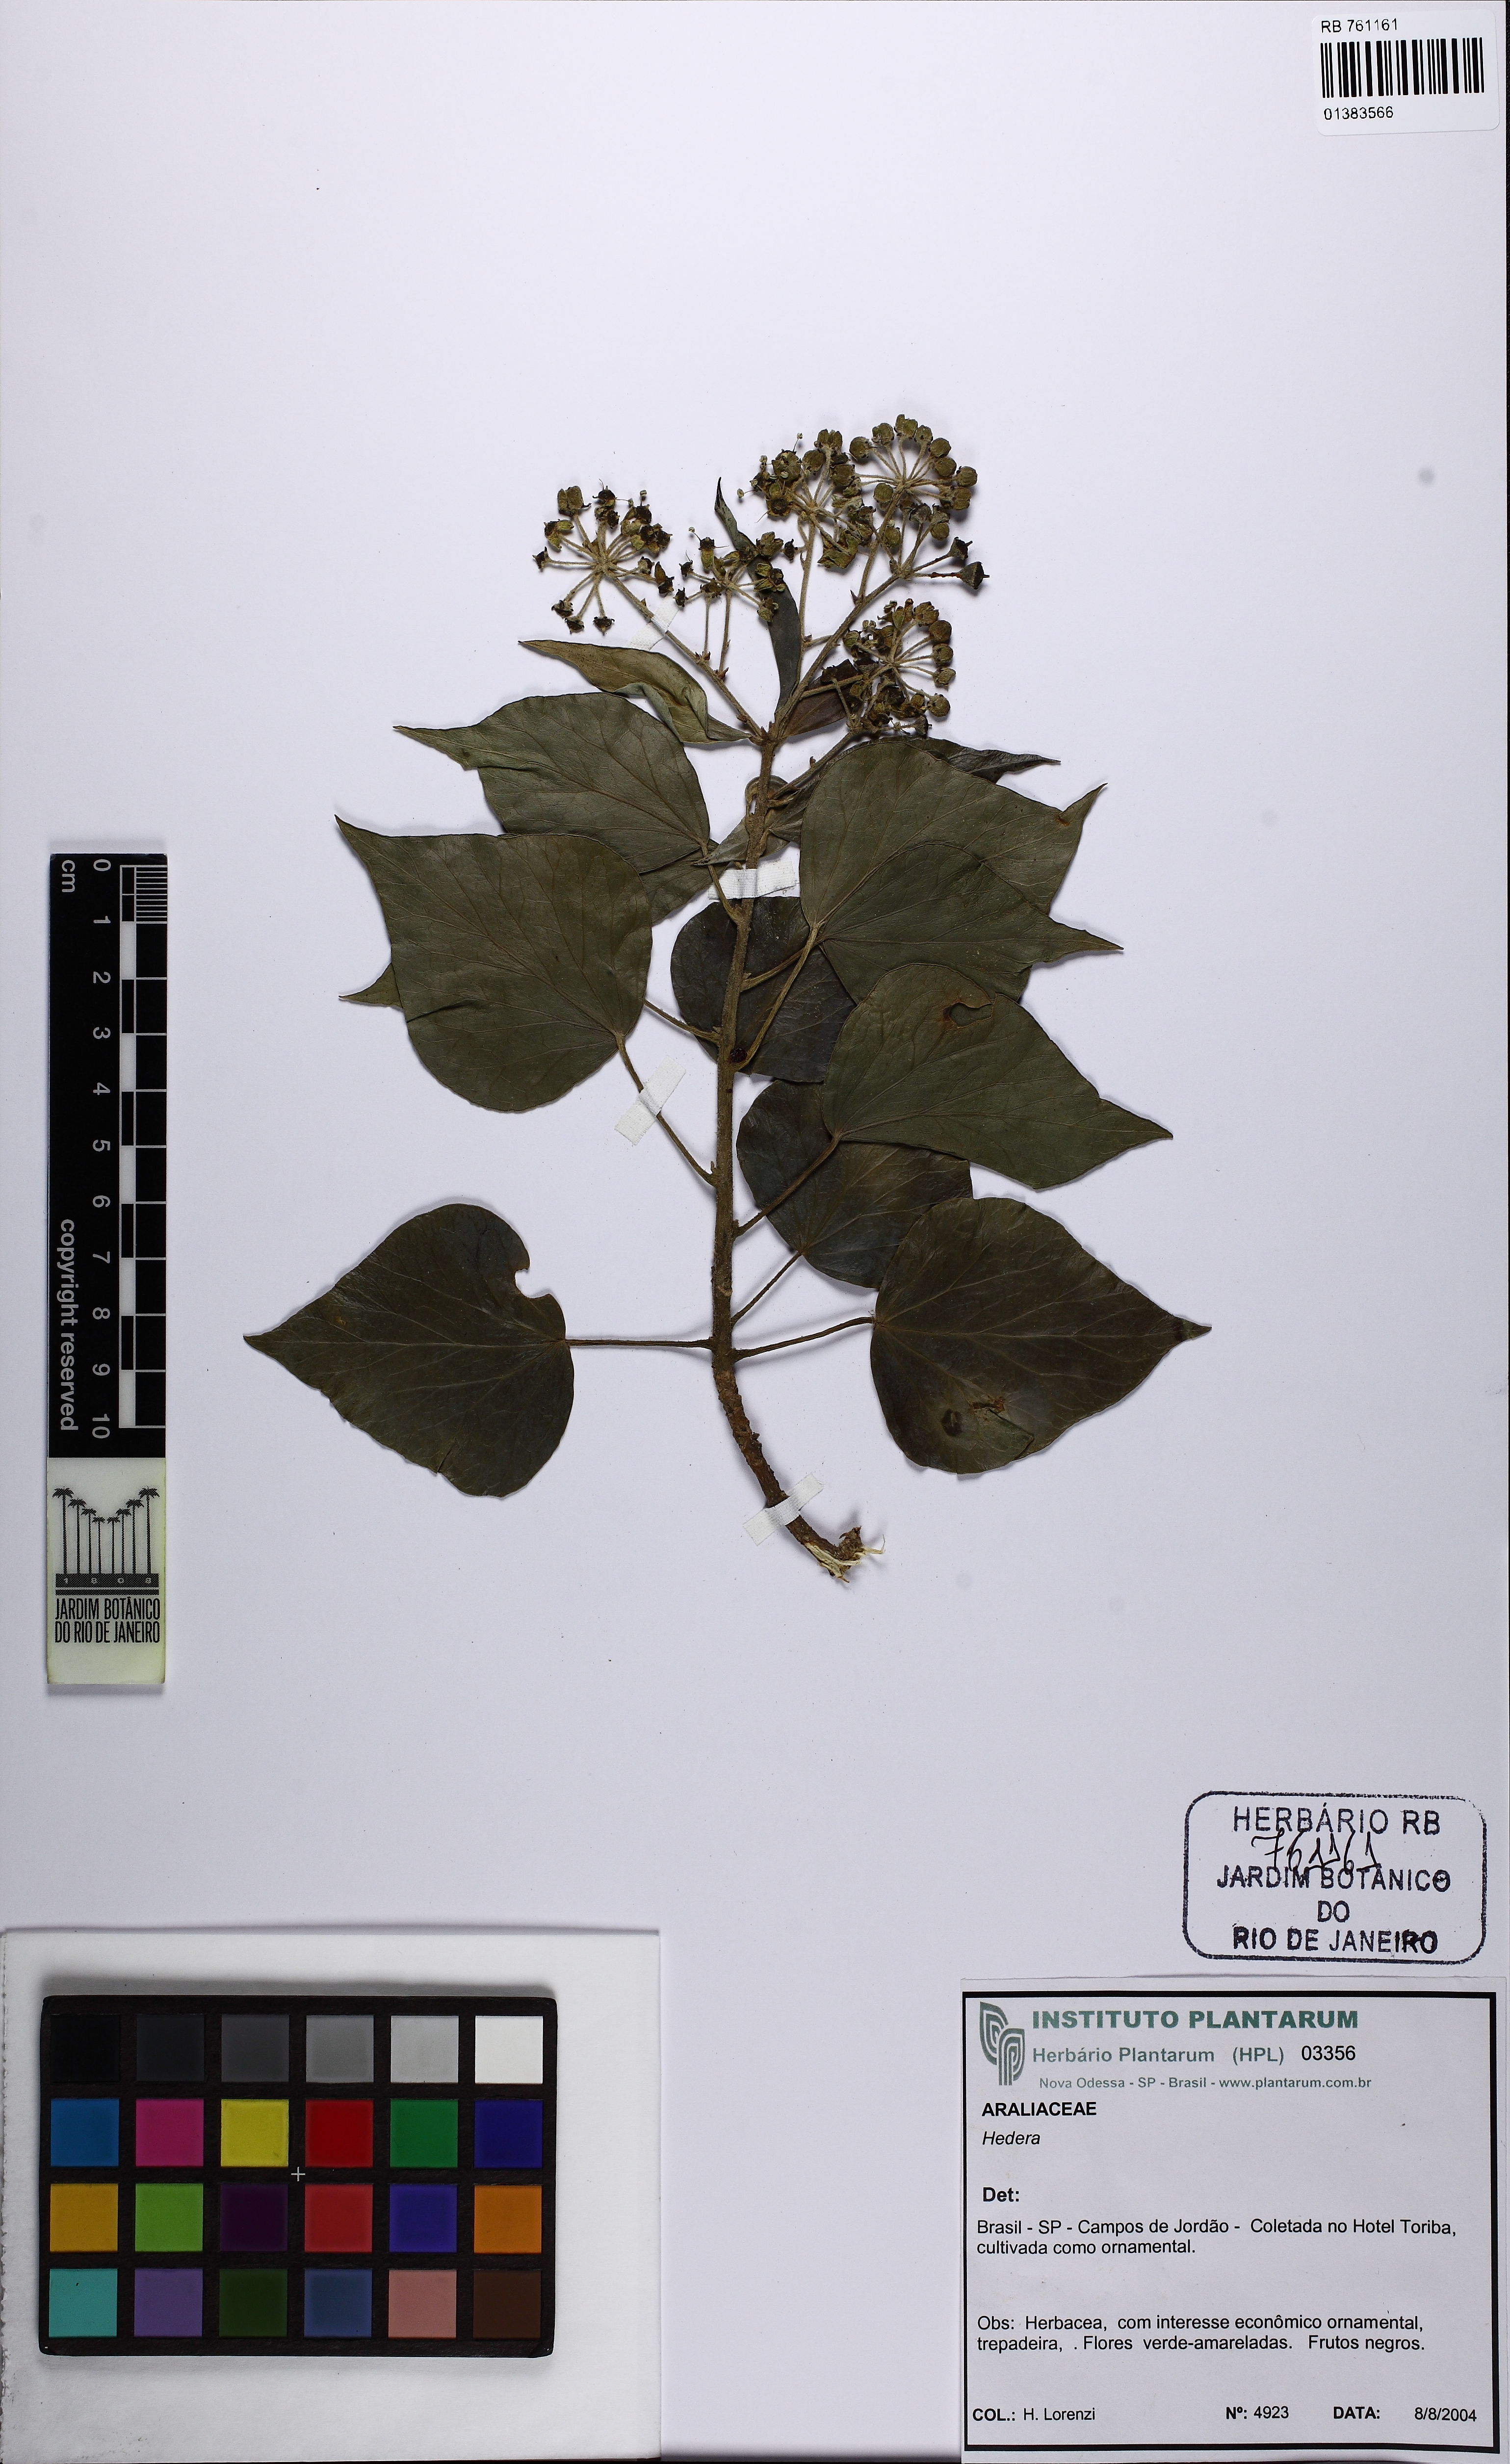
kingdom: Plantae
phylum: Tracheophyta
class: Magnoliopsida
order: Apiales
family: Araliaceae
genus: Hedera
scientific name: Hedera
